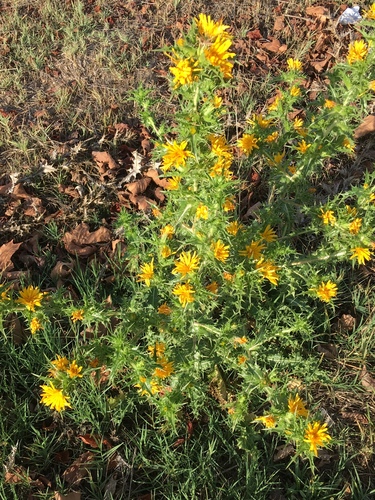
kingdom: Plantae
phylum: Tracheophyta
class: Magnoliopsida
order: Asterales
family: Asteraceae
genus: Scolymus
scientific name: Scolymus hispanicus
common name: Golden thistle
